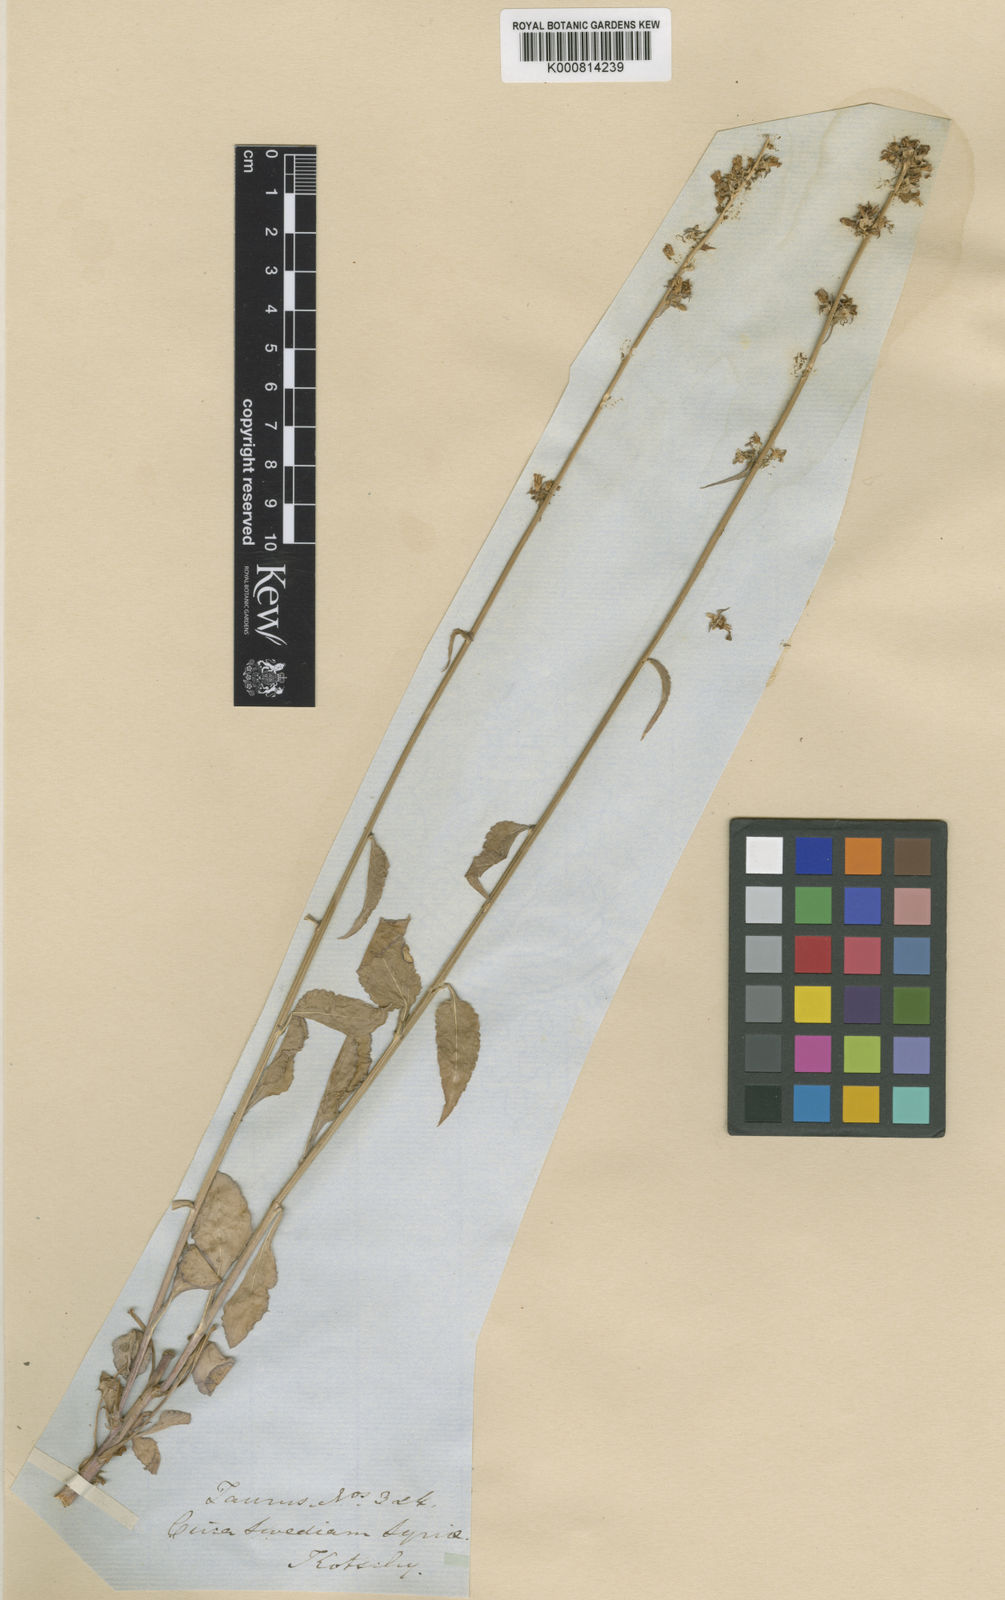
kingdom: Plantae
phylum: Tracheophyta
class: Magnoliopsida
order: Asterales
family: Campanulaceae
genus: Phyteuma
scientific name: Phyteuma
